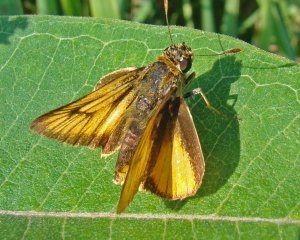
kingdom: Animalia
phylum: Arthropoda
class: Insecta
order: Lepidoptera
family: Hesperiidae
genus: Atrytone
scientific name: Atrytone delaware
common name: Delaware Skipper
